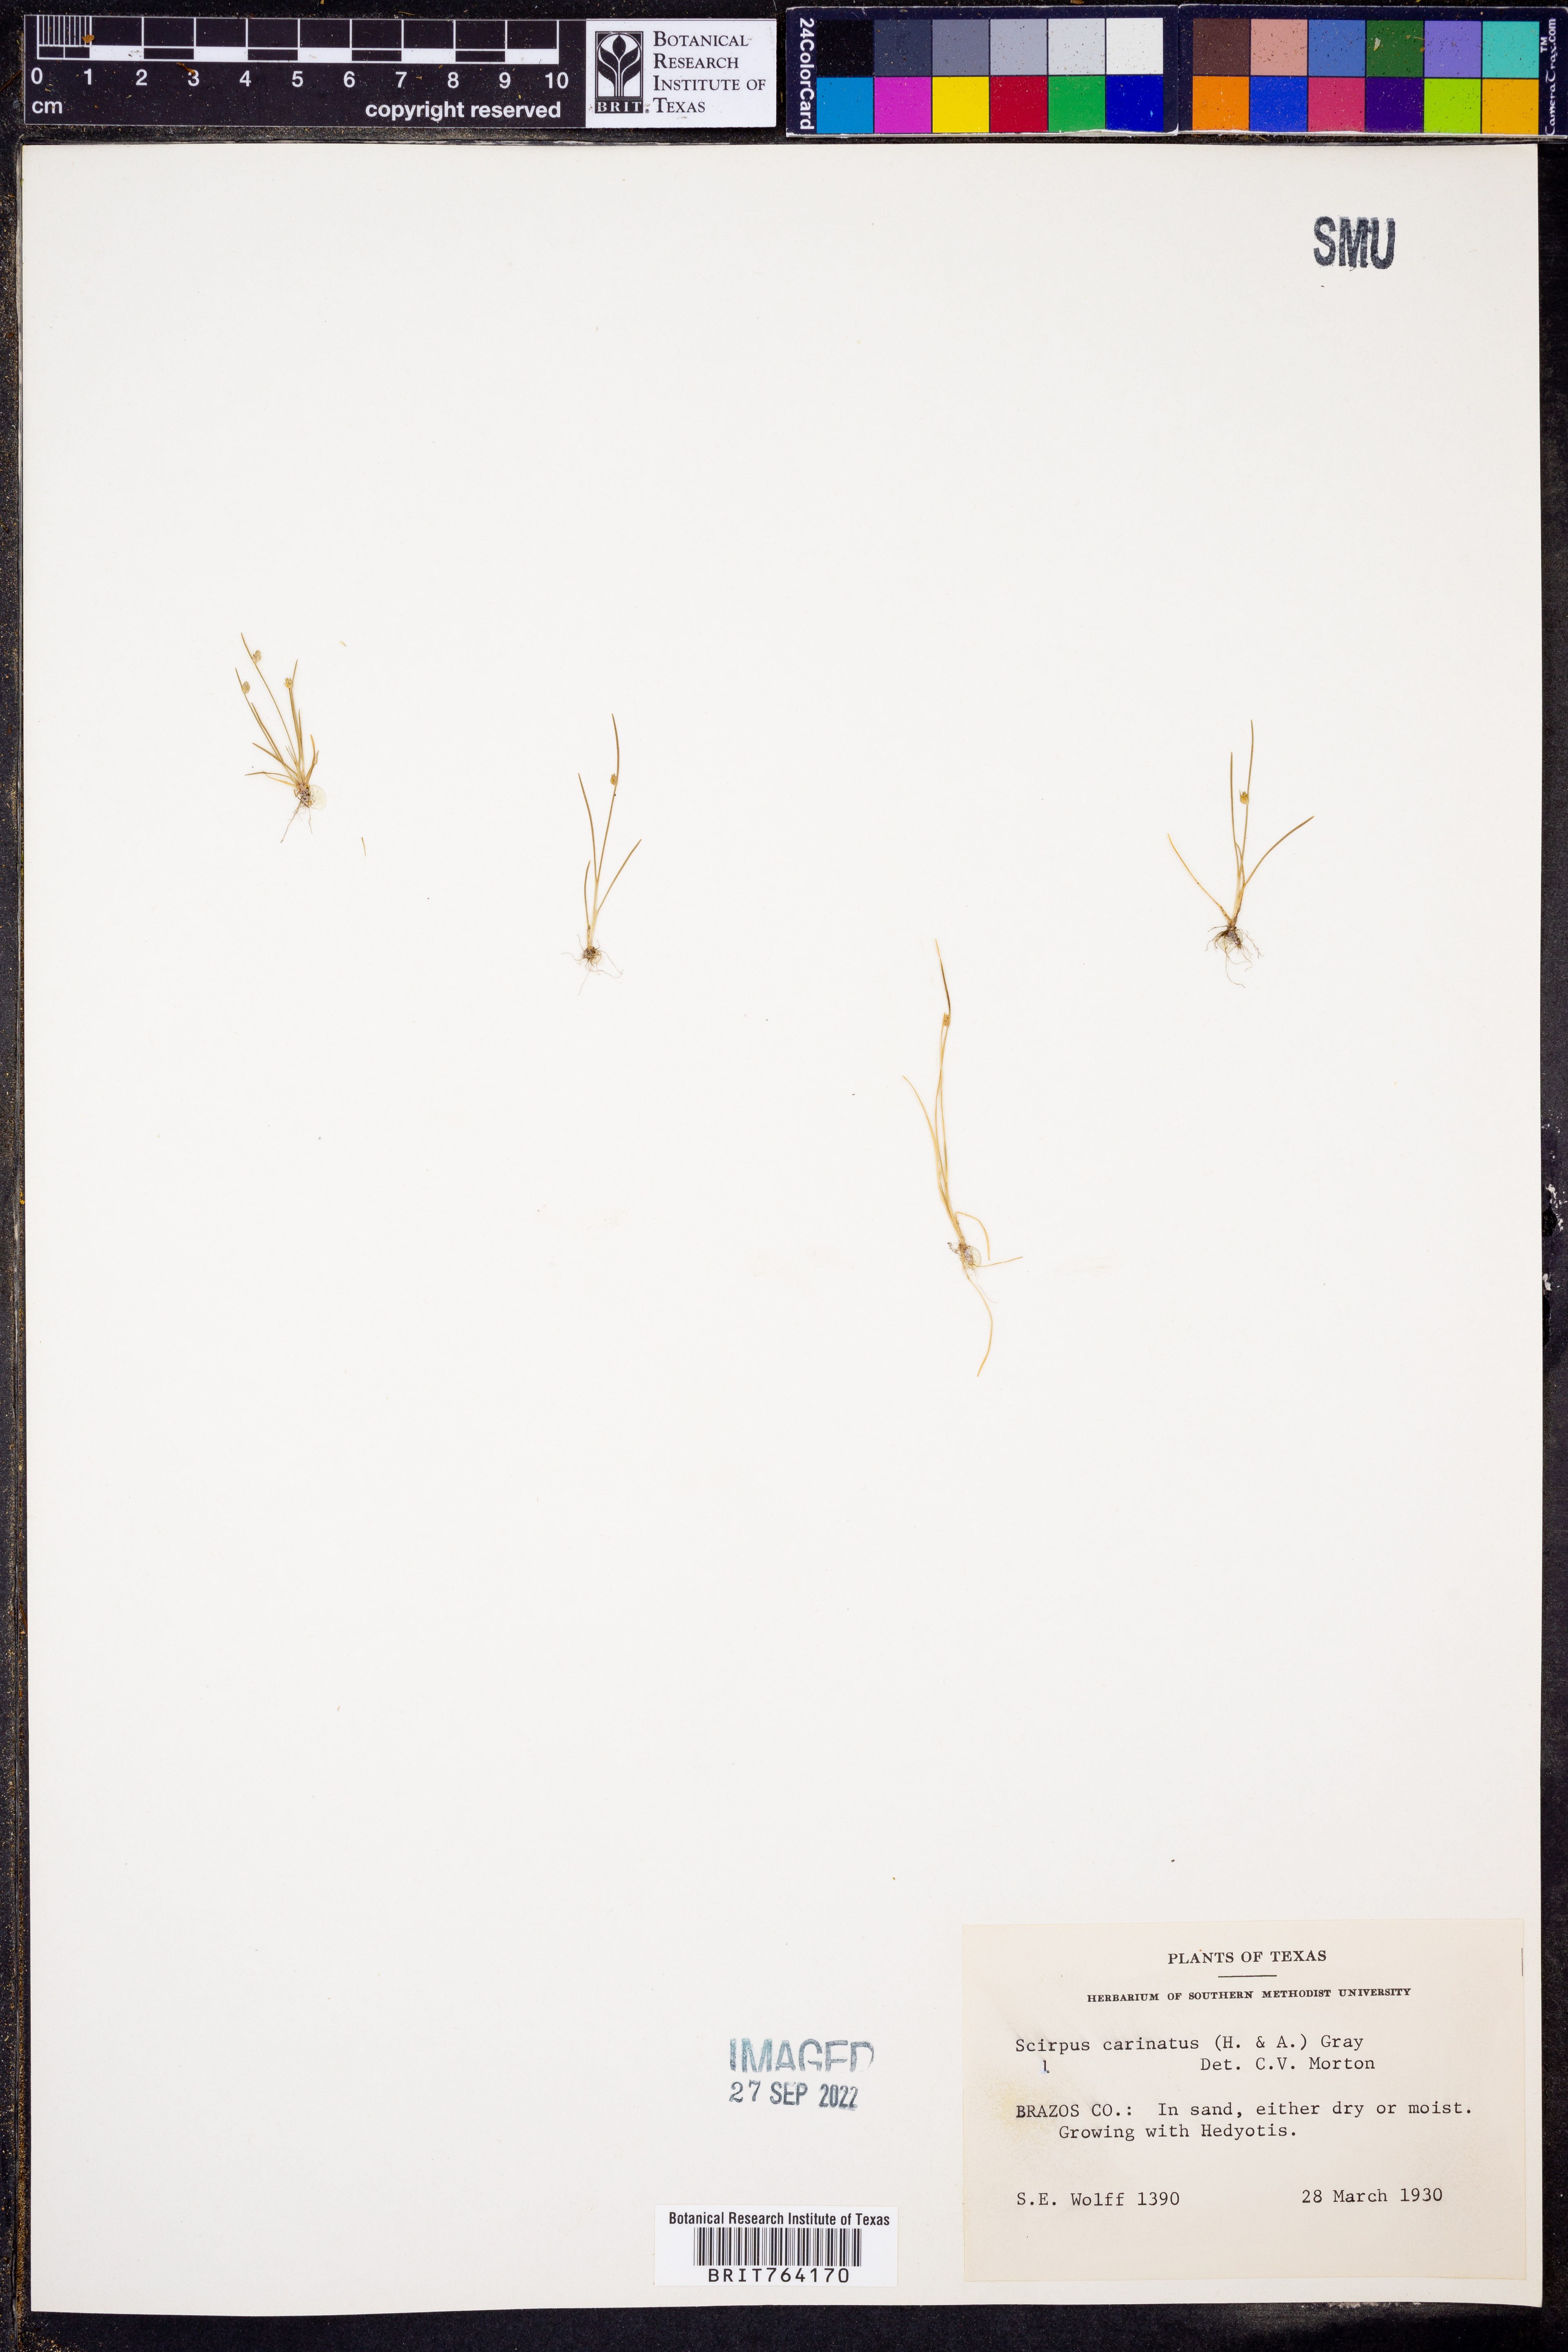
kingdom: Plantae
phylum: Tracheophyta
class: Liliopsida
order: Poales
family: Cyperaceae
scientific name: Cyperaceae
